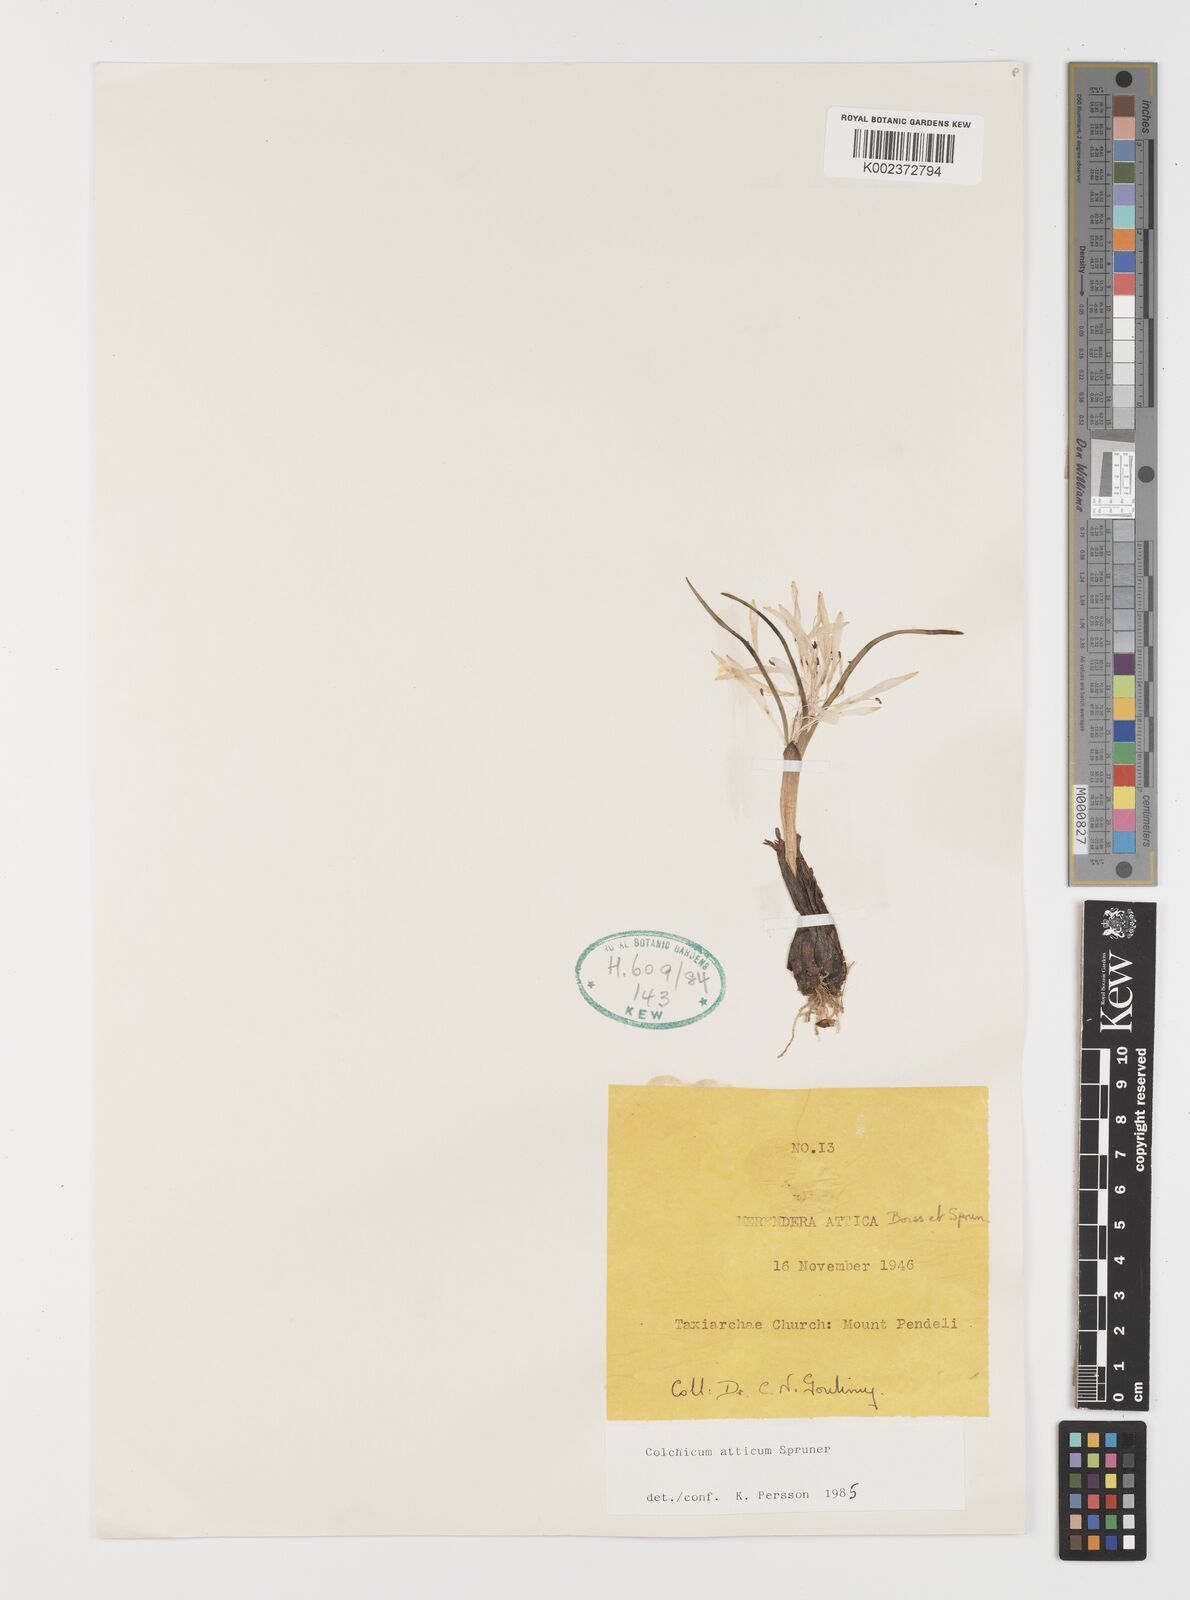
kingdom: Plantae
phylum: Tracheophyta
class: Liliopsida
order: Liliales
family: Colchicaceae
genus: Colchicum
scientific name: Colchicum atticum
